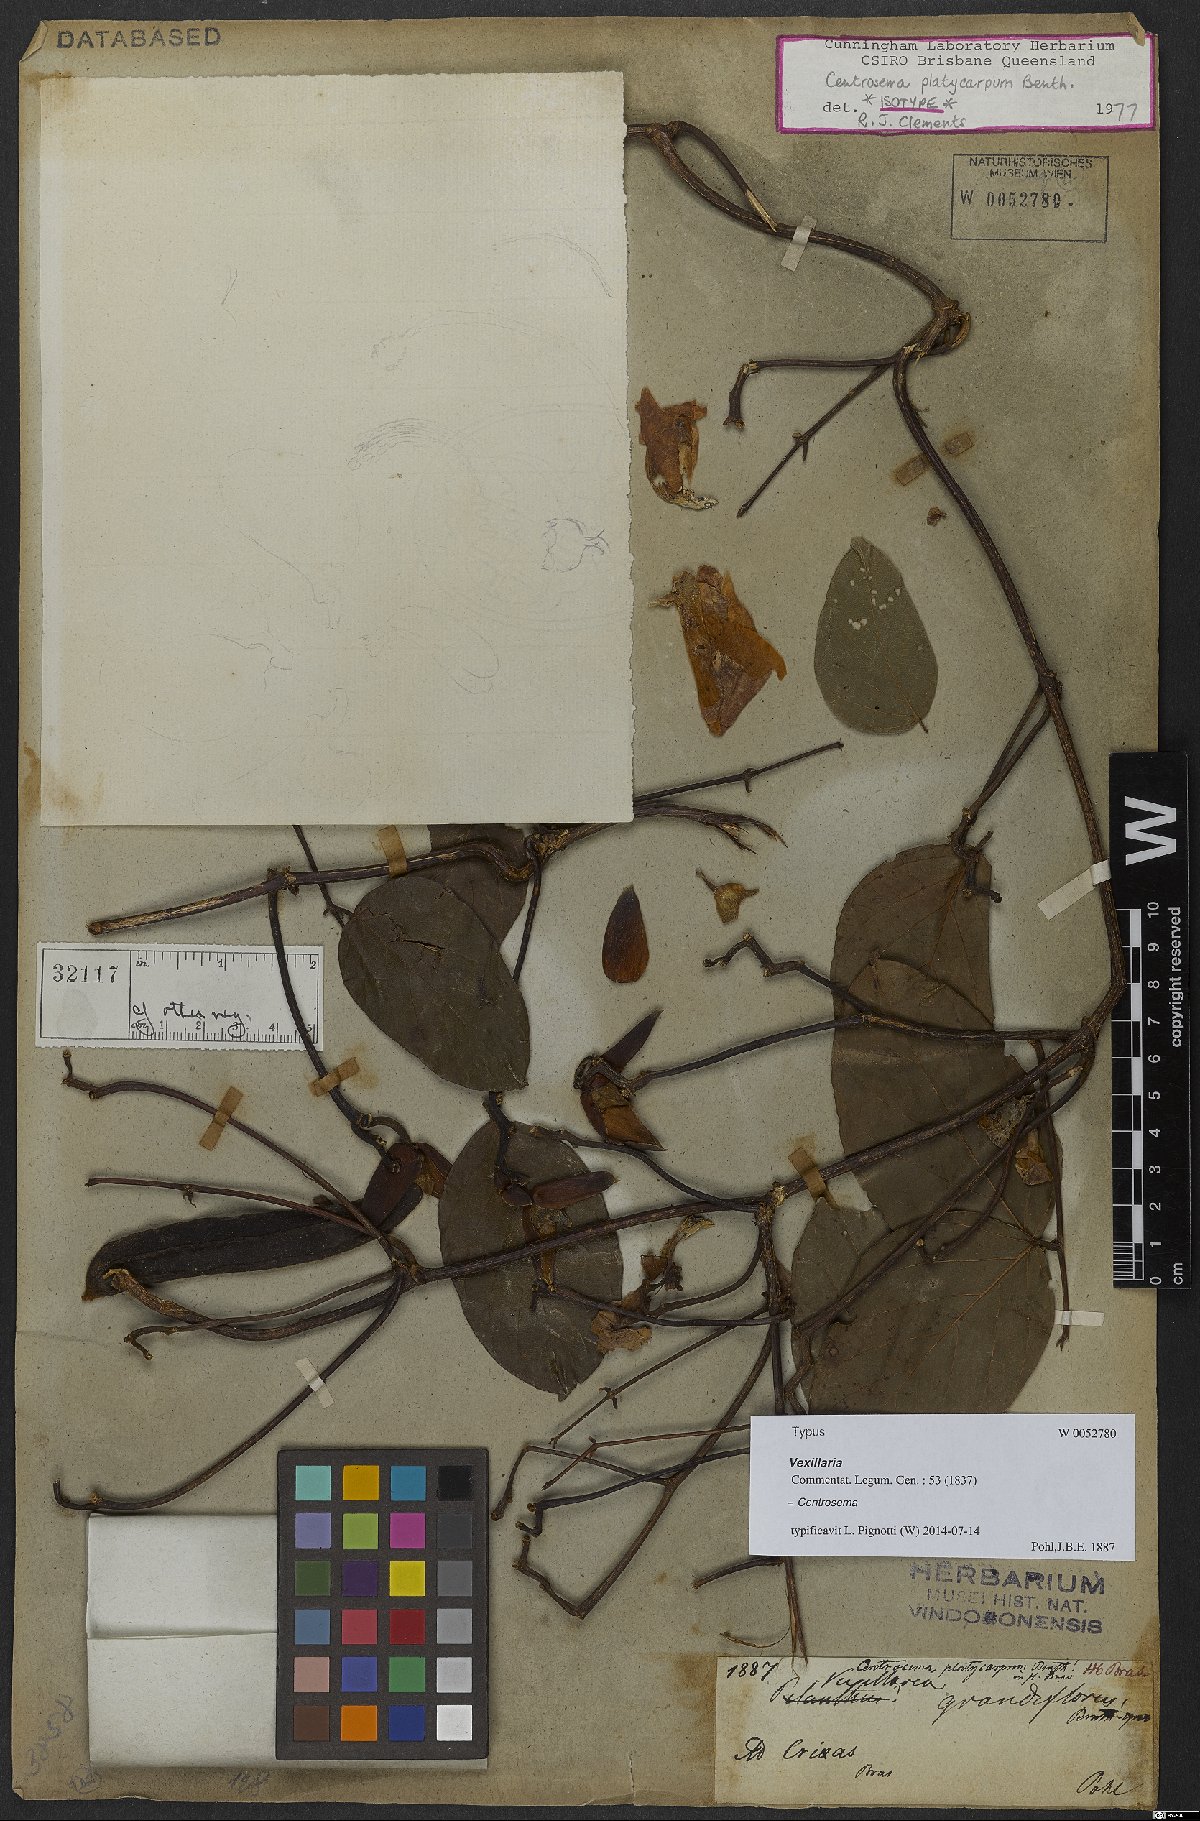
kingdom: Plantae
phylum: Tracheophyta
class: Magnoliopsida
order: Fabales
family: Fabaceae
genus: Centrosema
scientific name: Centrosema platycarpum
